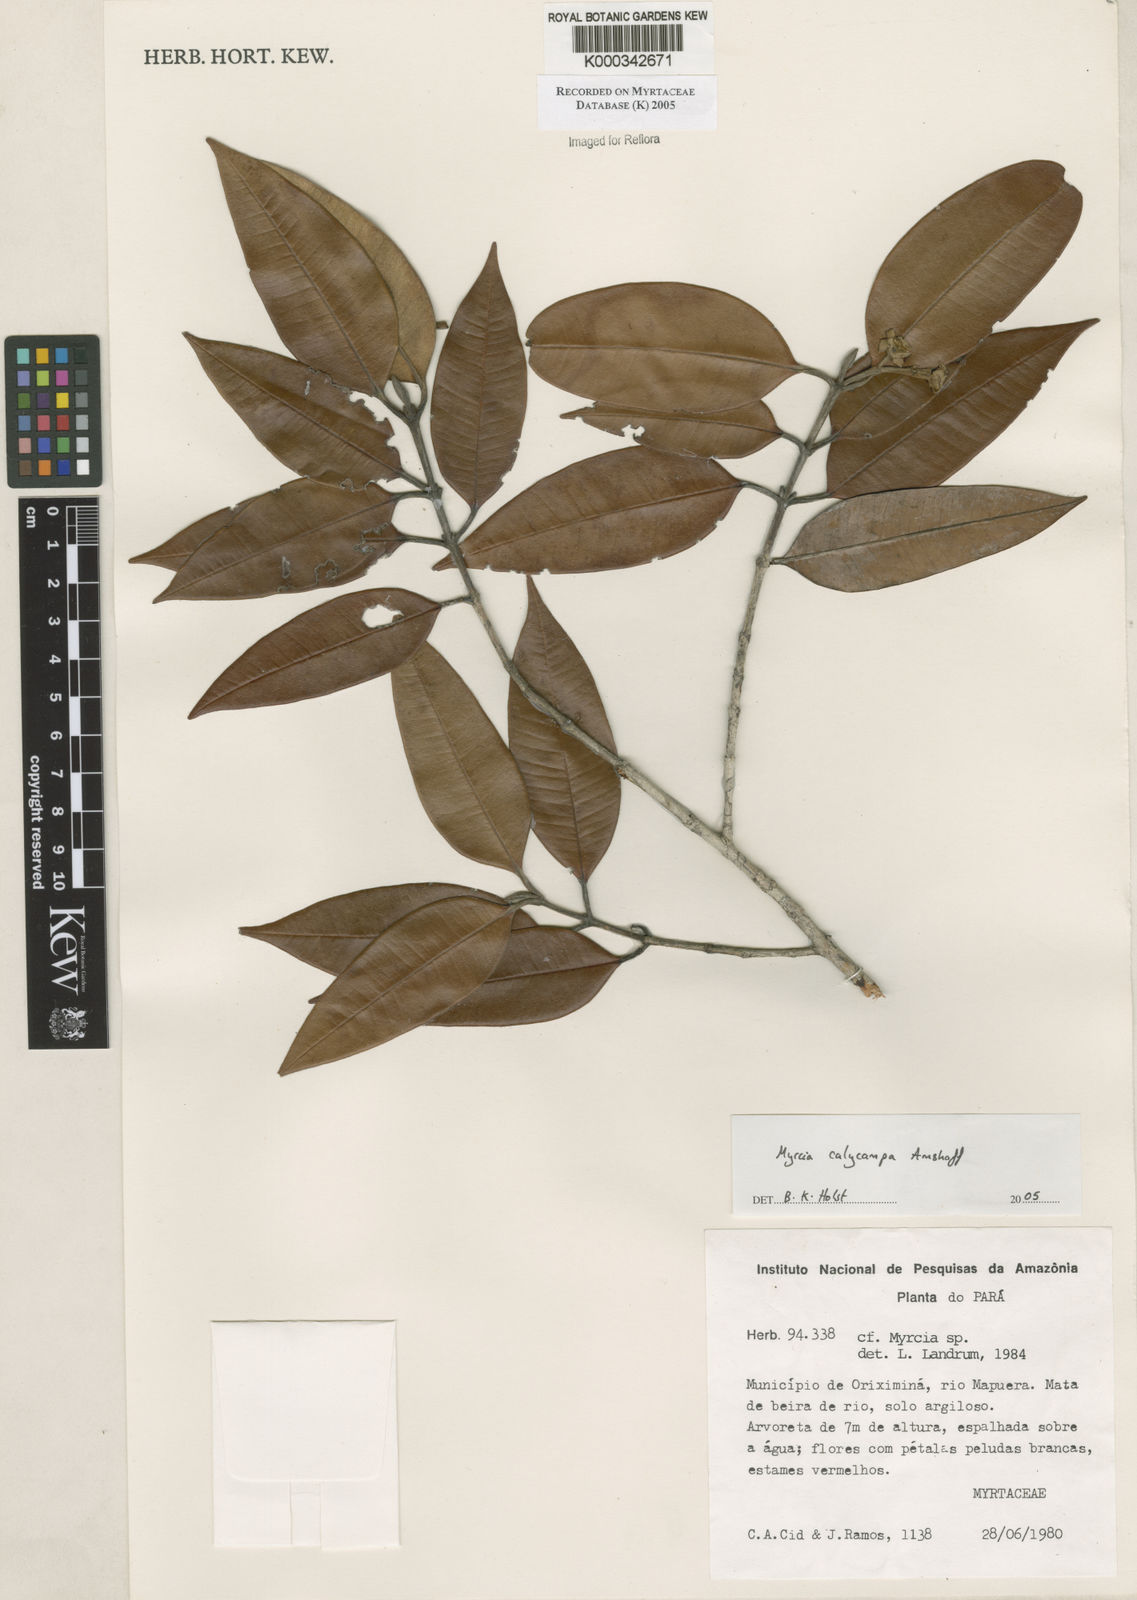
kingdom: Plantae
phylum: Tracheophyta
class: Magnoliopsida
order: Myrtales
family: Myrtaceae
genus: Myrcia
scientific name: Myrcia calycampa
